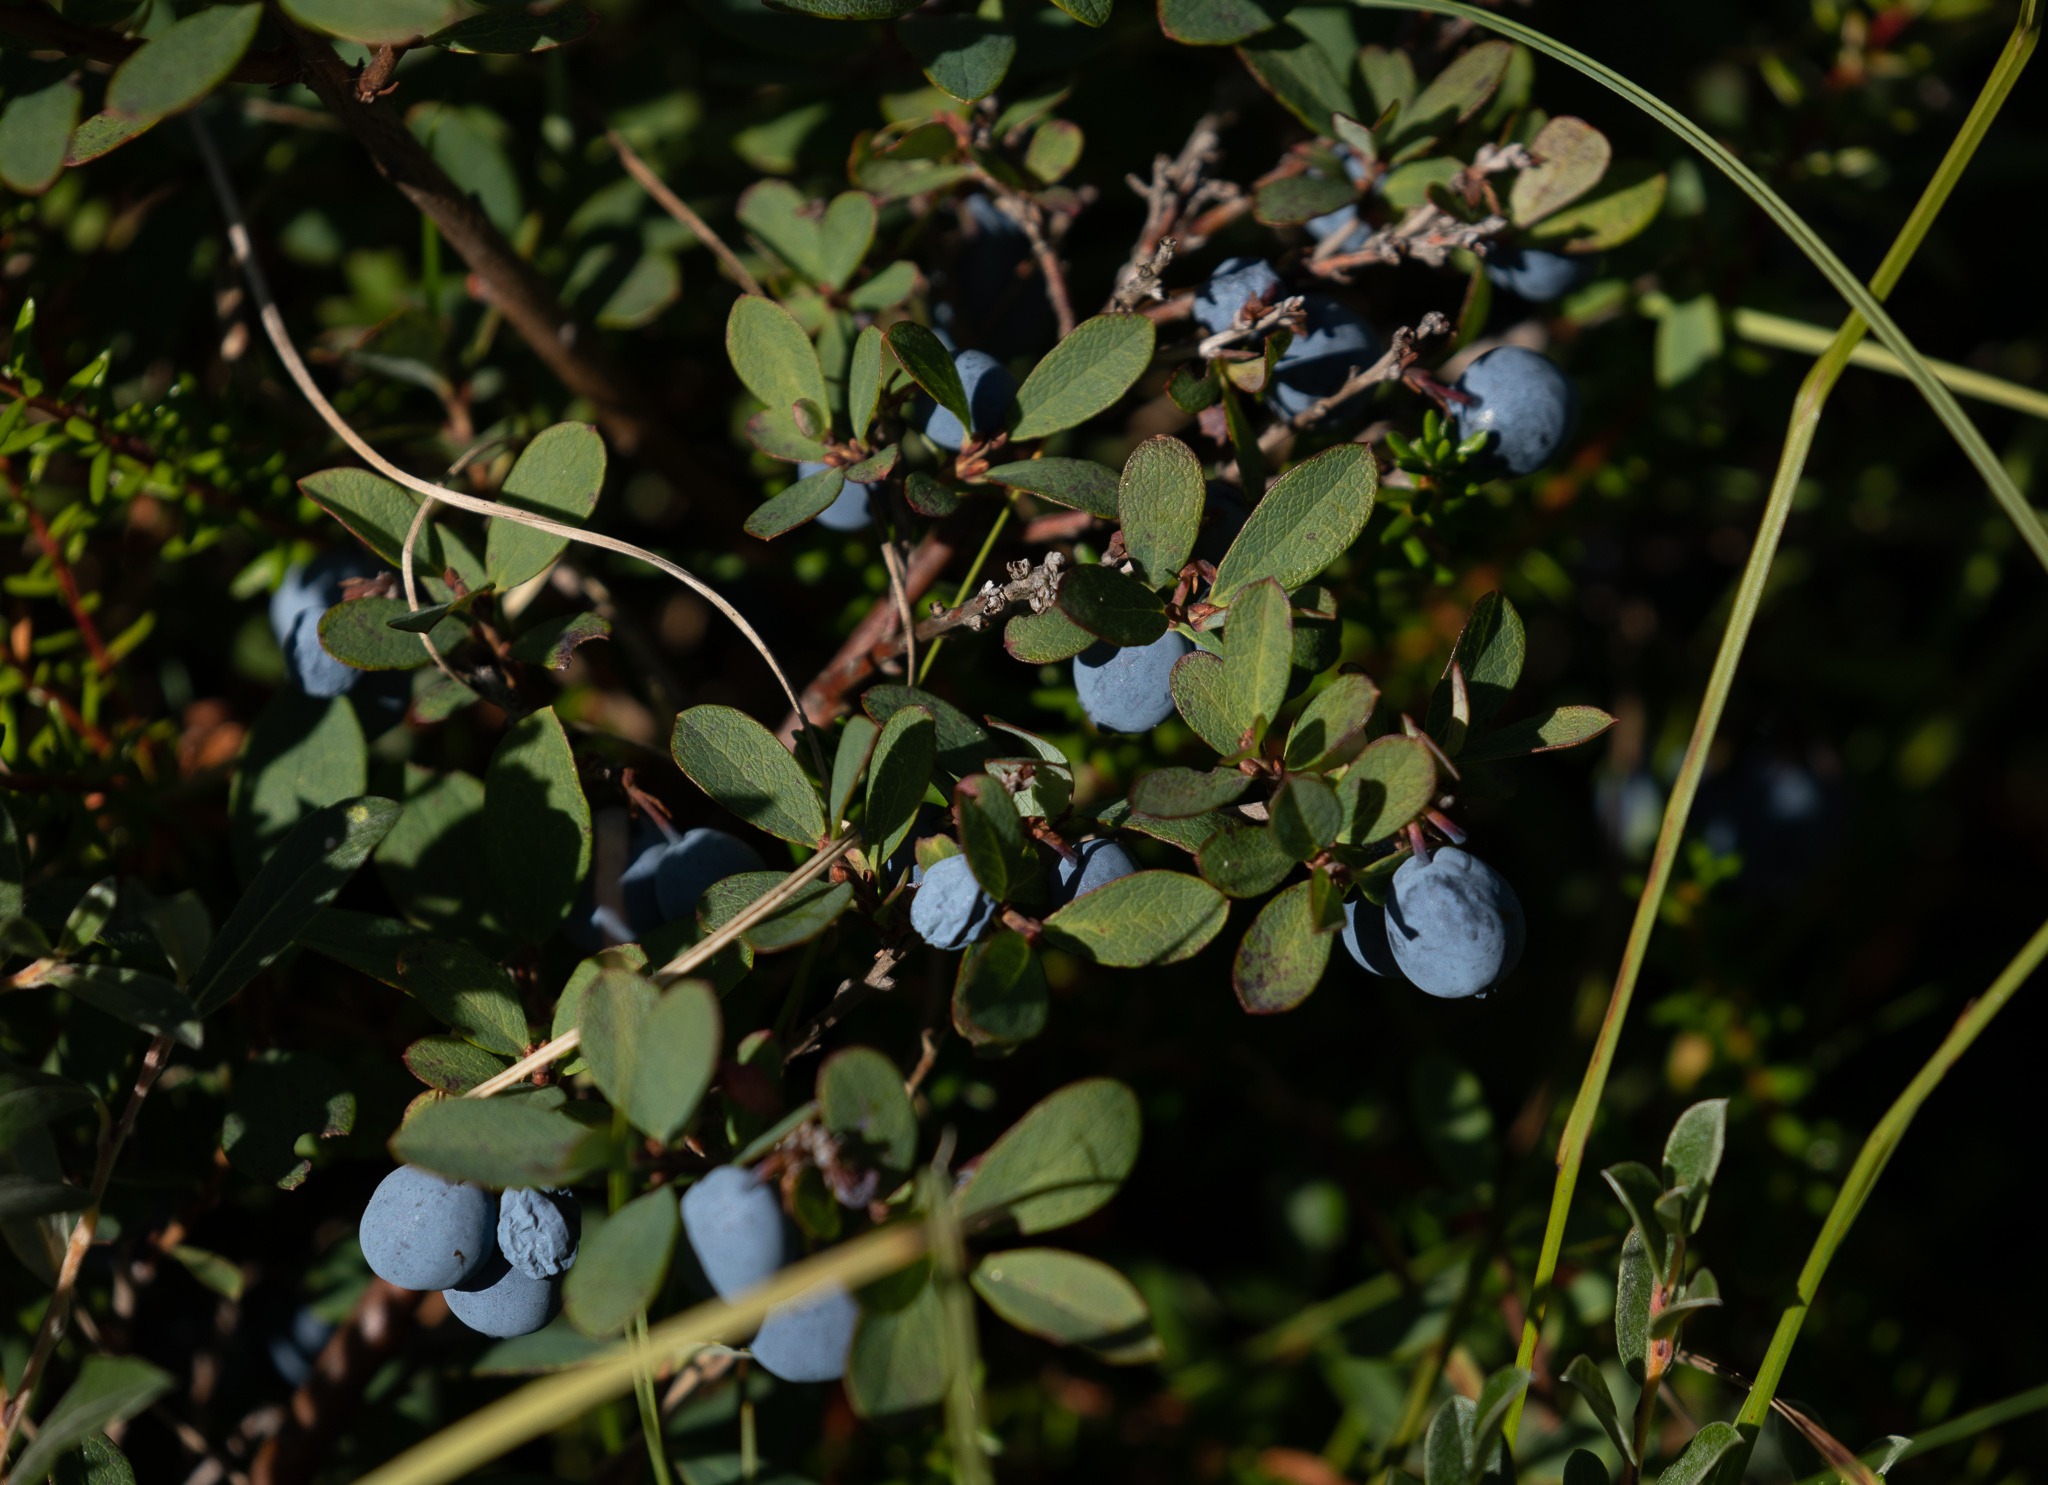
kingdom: Plantae
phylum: Tracheophyta
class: Magnoliopsida
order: Ericales
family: Ericaceae
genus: Vaccinium
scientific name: Vaccinium uliginosum
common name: Mose-bølle
